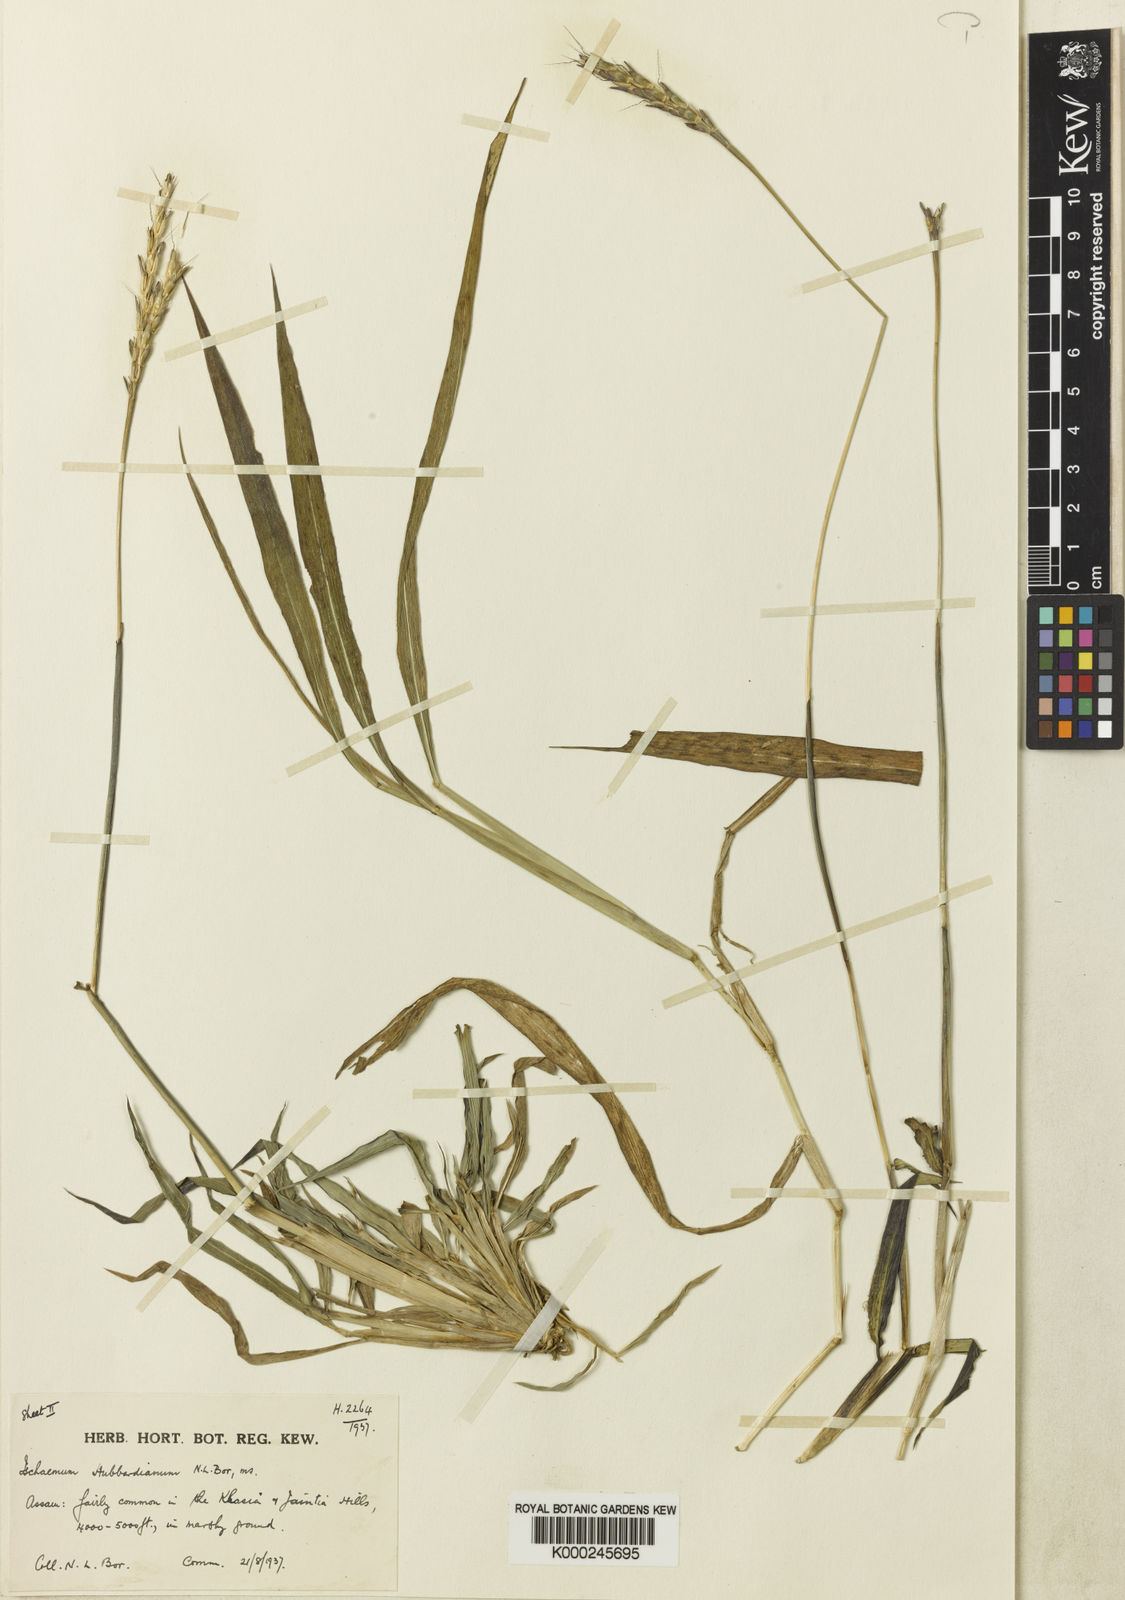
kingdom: Plantae
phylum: Tracheophyta
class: Liliopsida
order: Poales
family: Poaceae
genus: Ischaemum
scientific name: Ischaemum hubbardii
